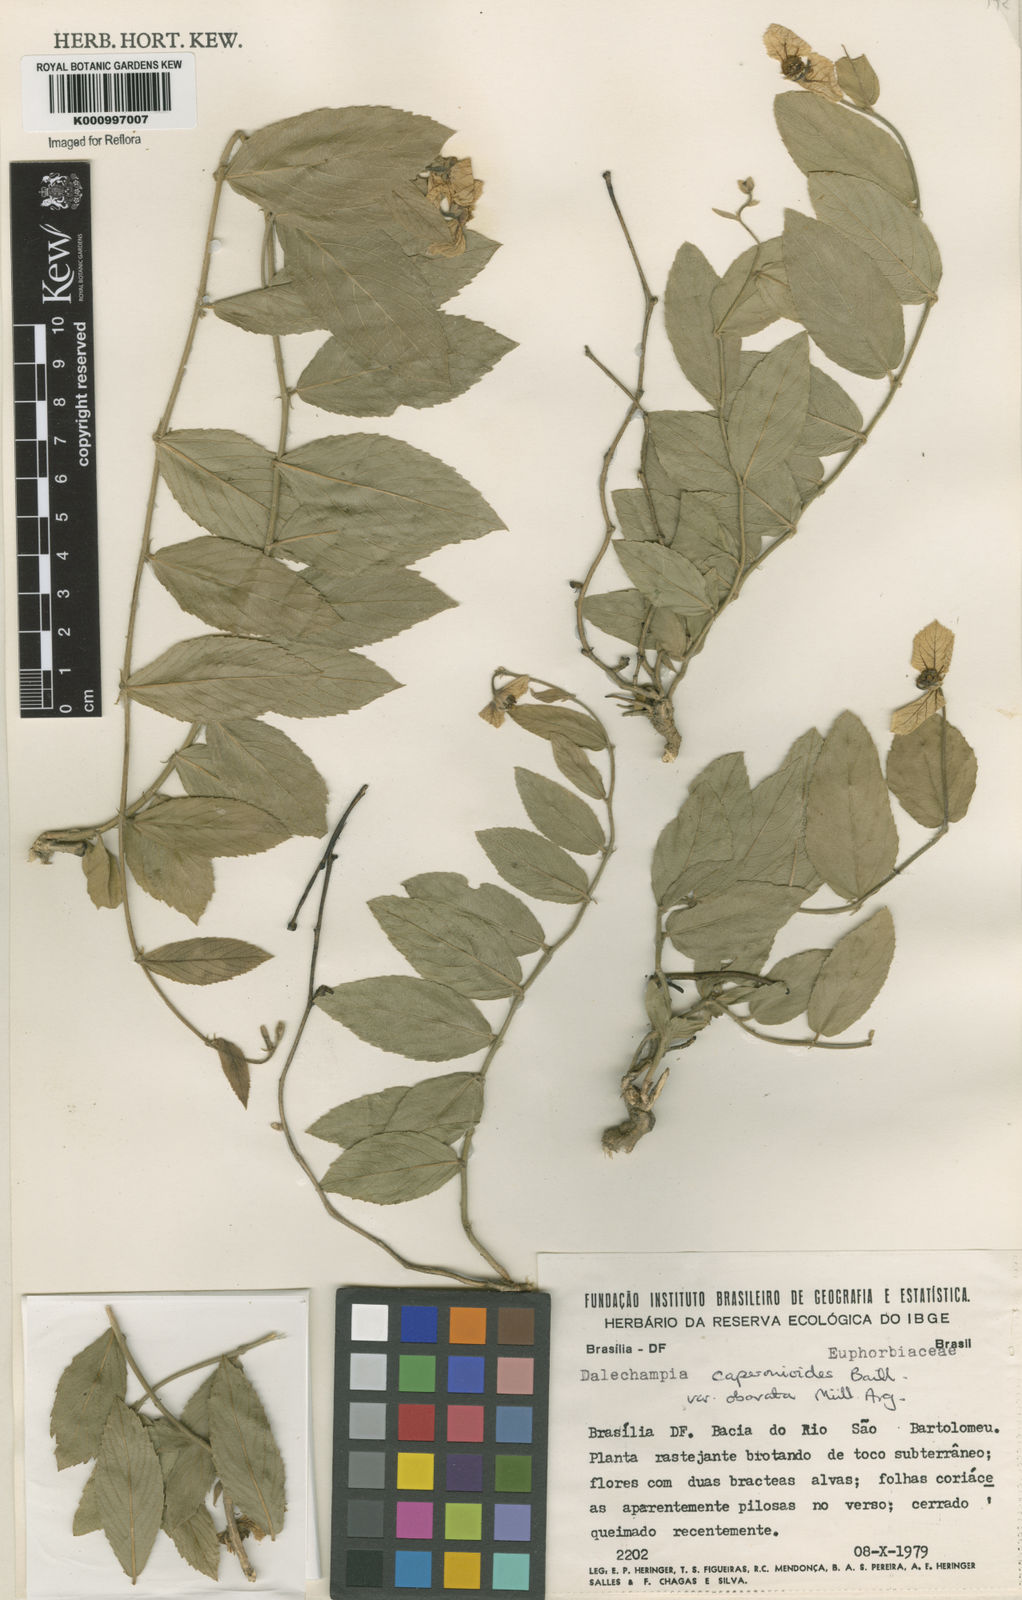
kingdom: Plantae
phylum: Tracheophyta
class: Magnoliopsida
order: Malpighiales
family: Euphorbiaceae
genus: Dalechampia
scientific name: Dalechampia caperonioides
